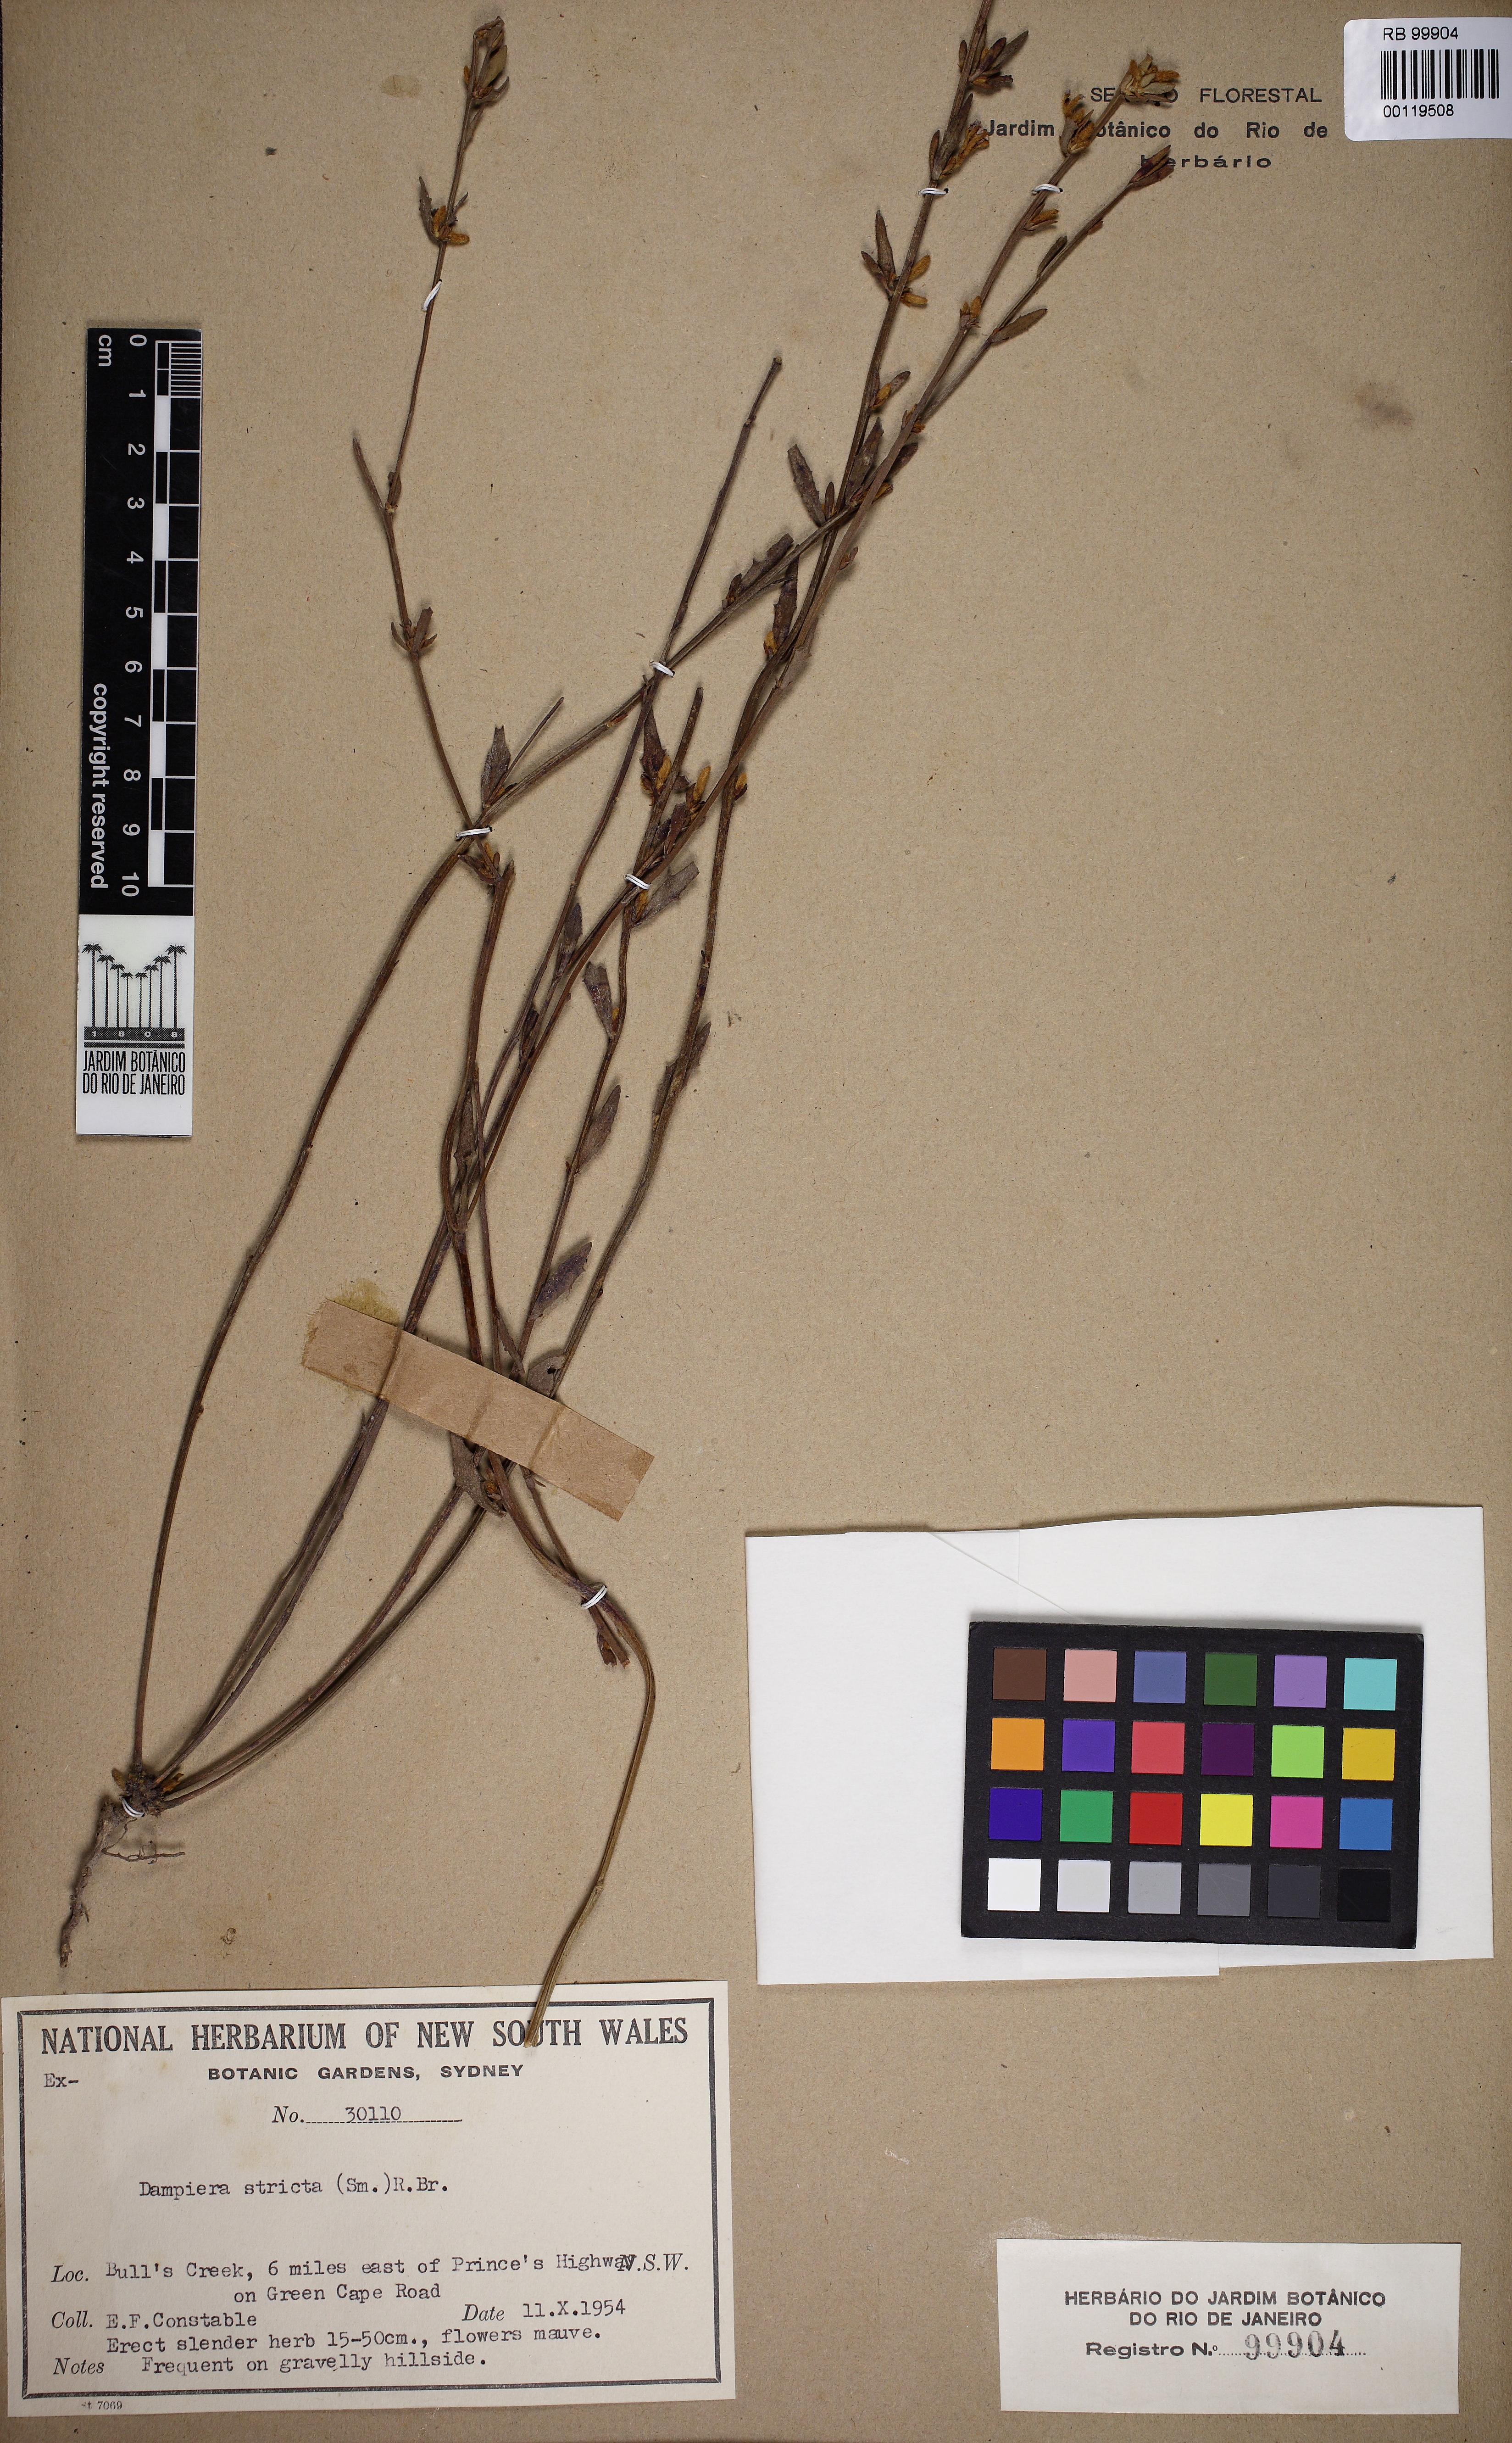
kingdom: Plantae
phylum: Tracheophyta
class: Magnoliopsida
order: Asterales
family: Goodeniaceae
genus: Dampiera
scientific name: Dampiera stricta
